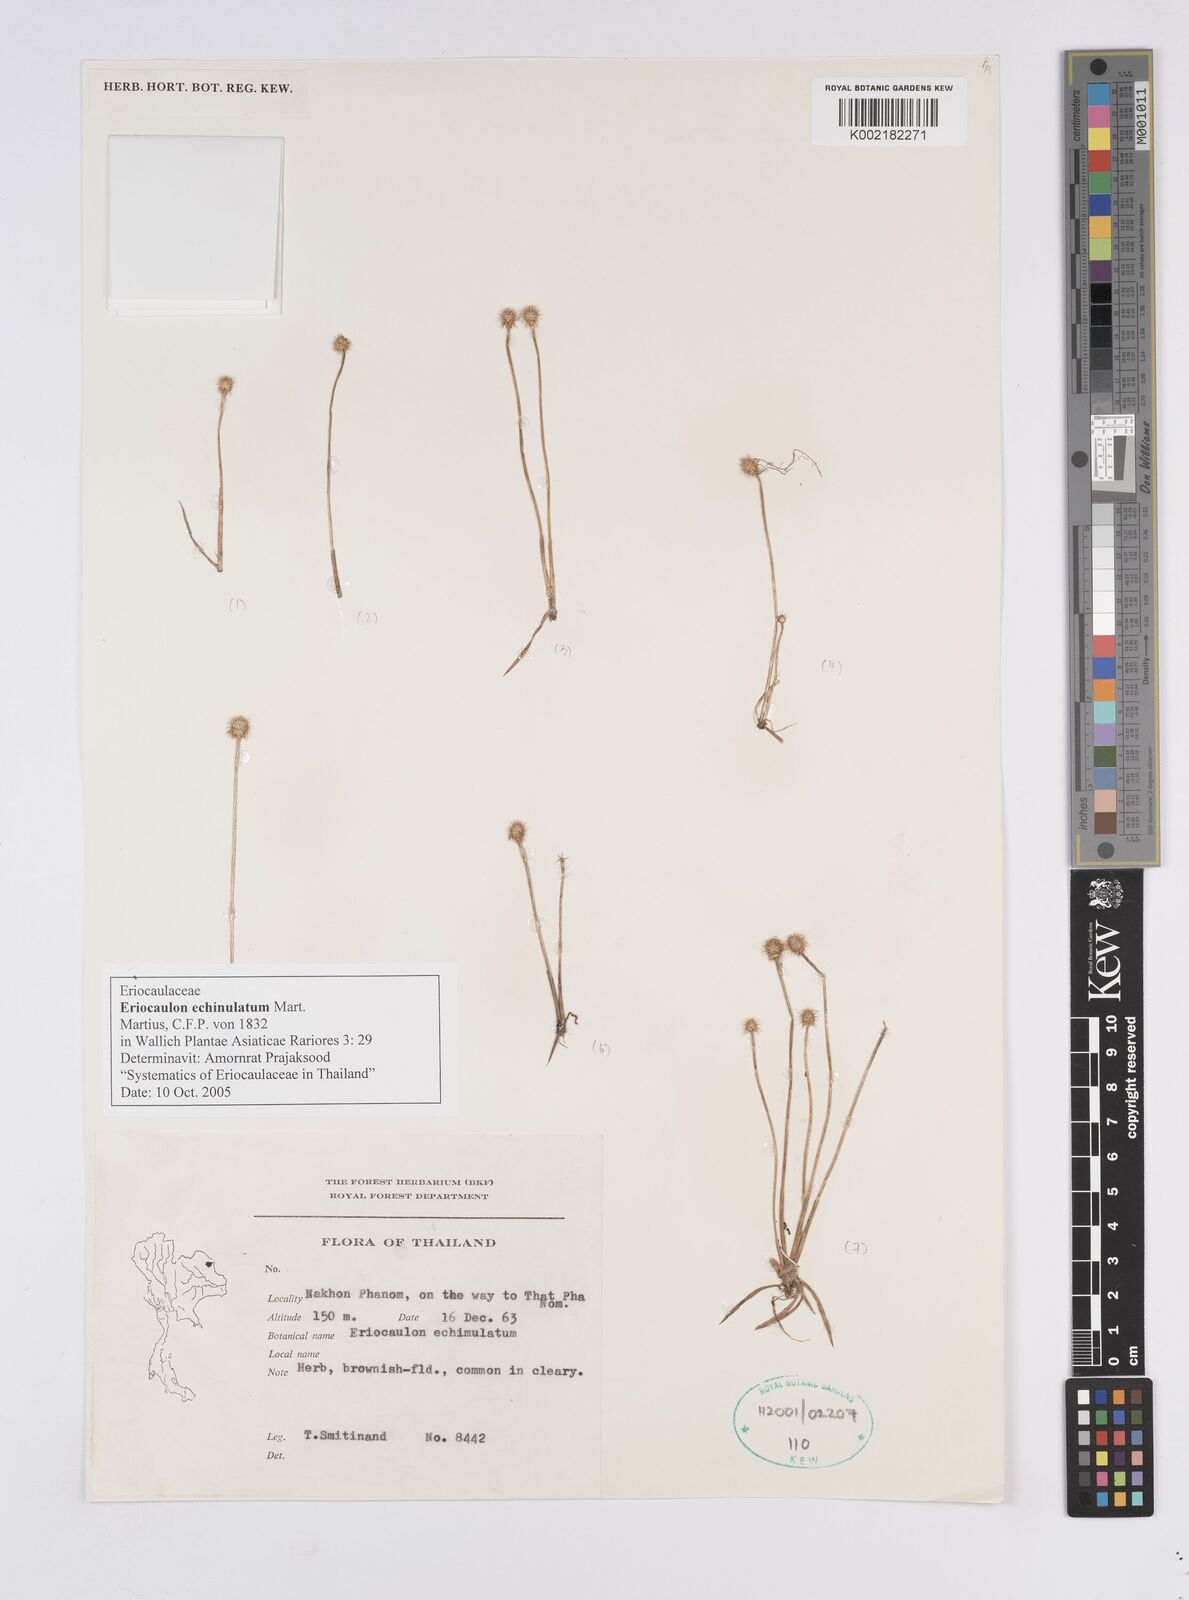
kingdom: Plantae
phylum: Tracheophyta
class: Liliopsida
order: Poales
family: Eriocaulaceae
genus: Eriocaulon
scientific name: Eriocaulon echinulatum
